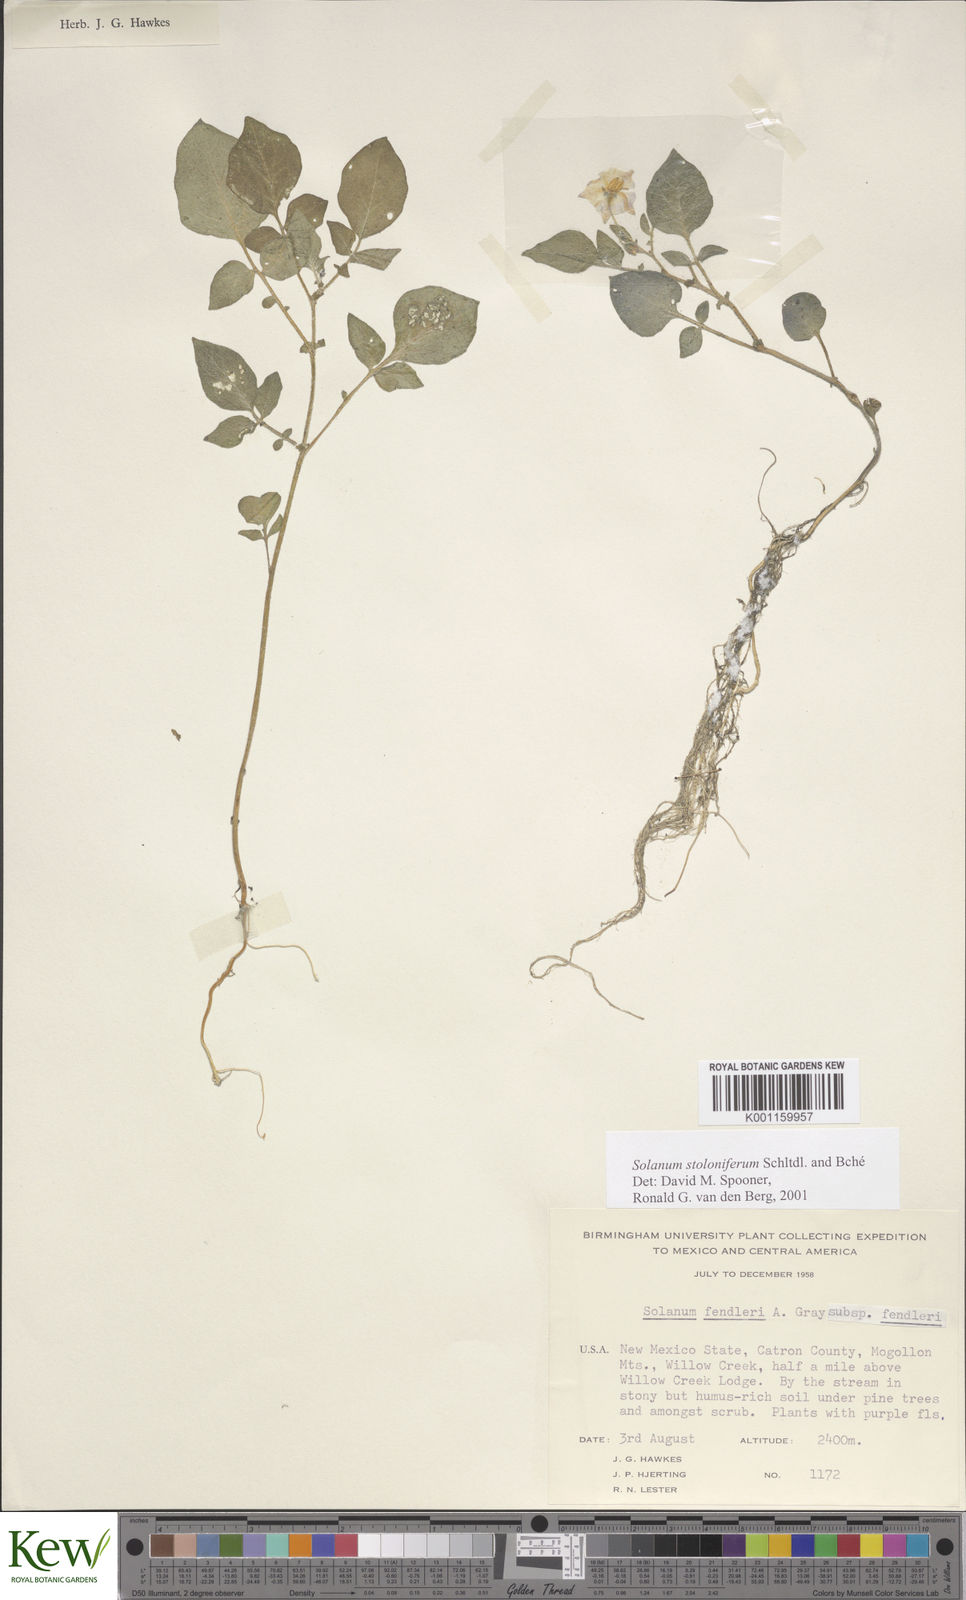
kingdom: Plantae
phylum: Tracheophyta
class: Magnoliopsida
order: Solanales
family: Solanaceae
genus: Solanum
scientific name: Solanum stoloniferum
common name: Fendler's nighshade
